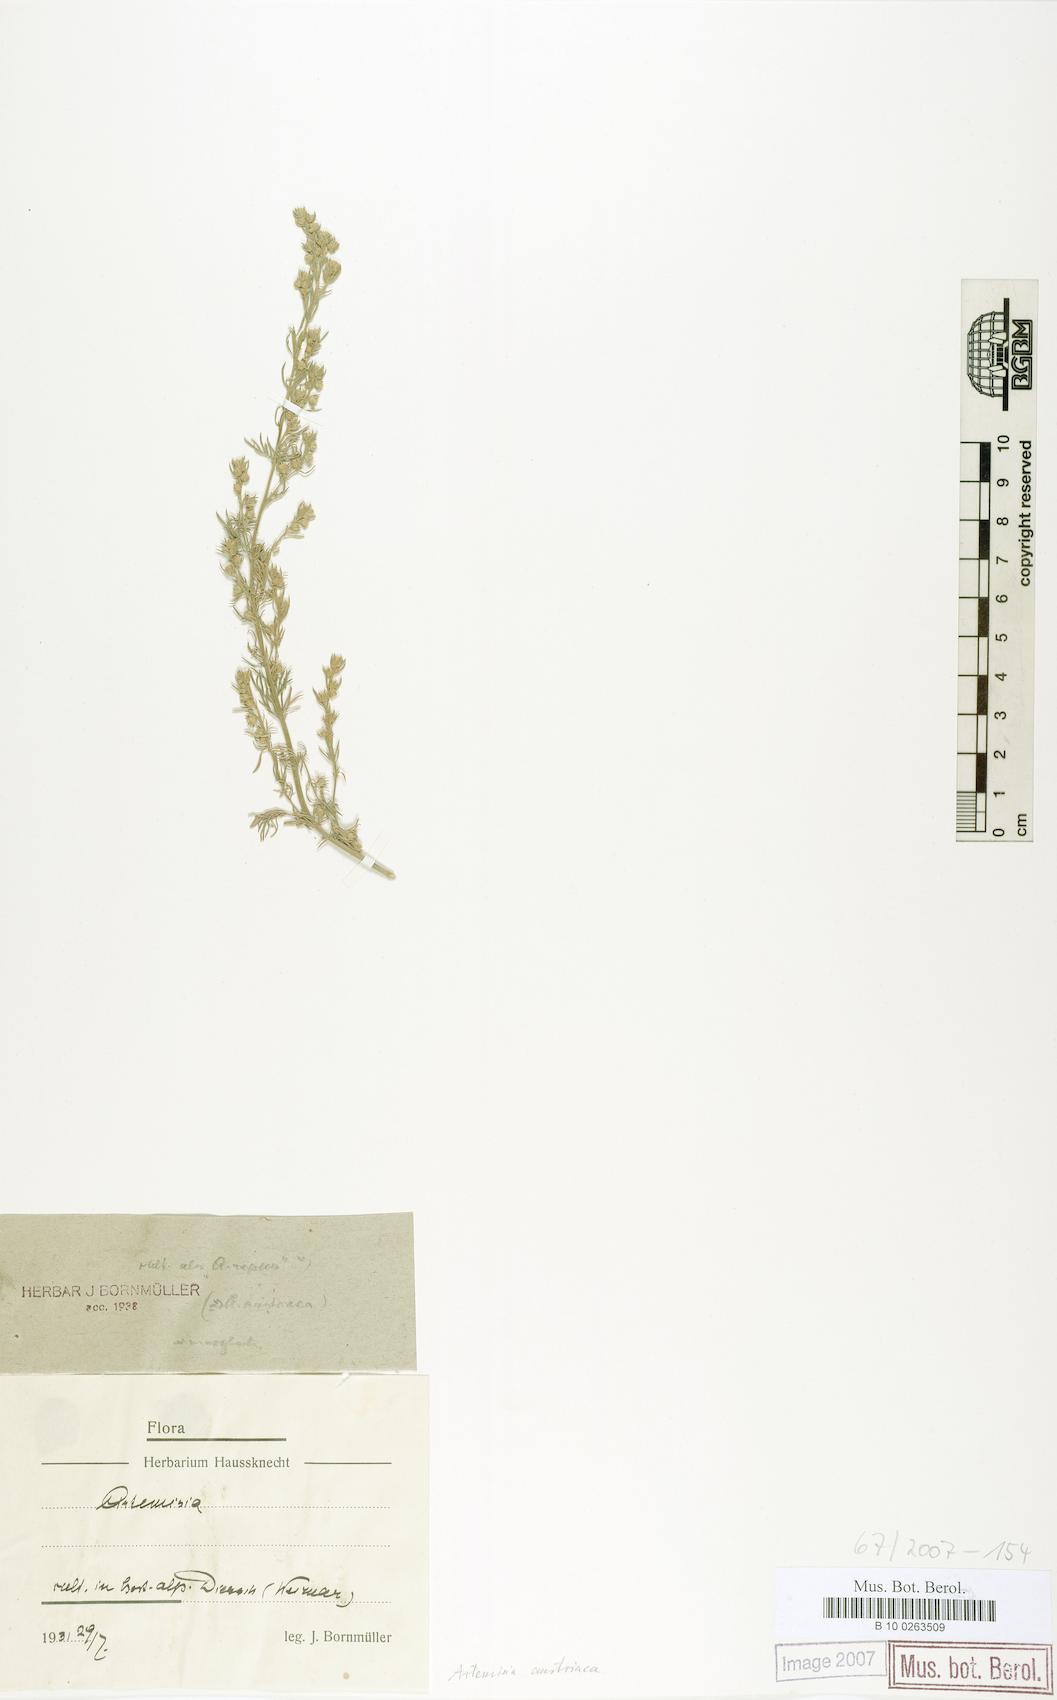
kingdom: Plantae
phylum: Tracheophyta
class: Magnoliopsida
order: Asterales
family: Asteraceae
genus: Artemisia
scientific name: Artemisia austriaca
